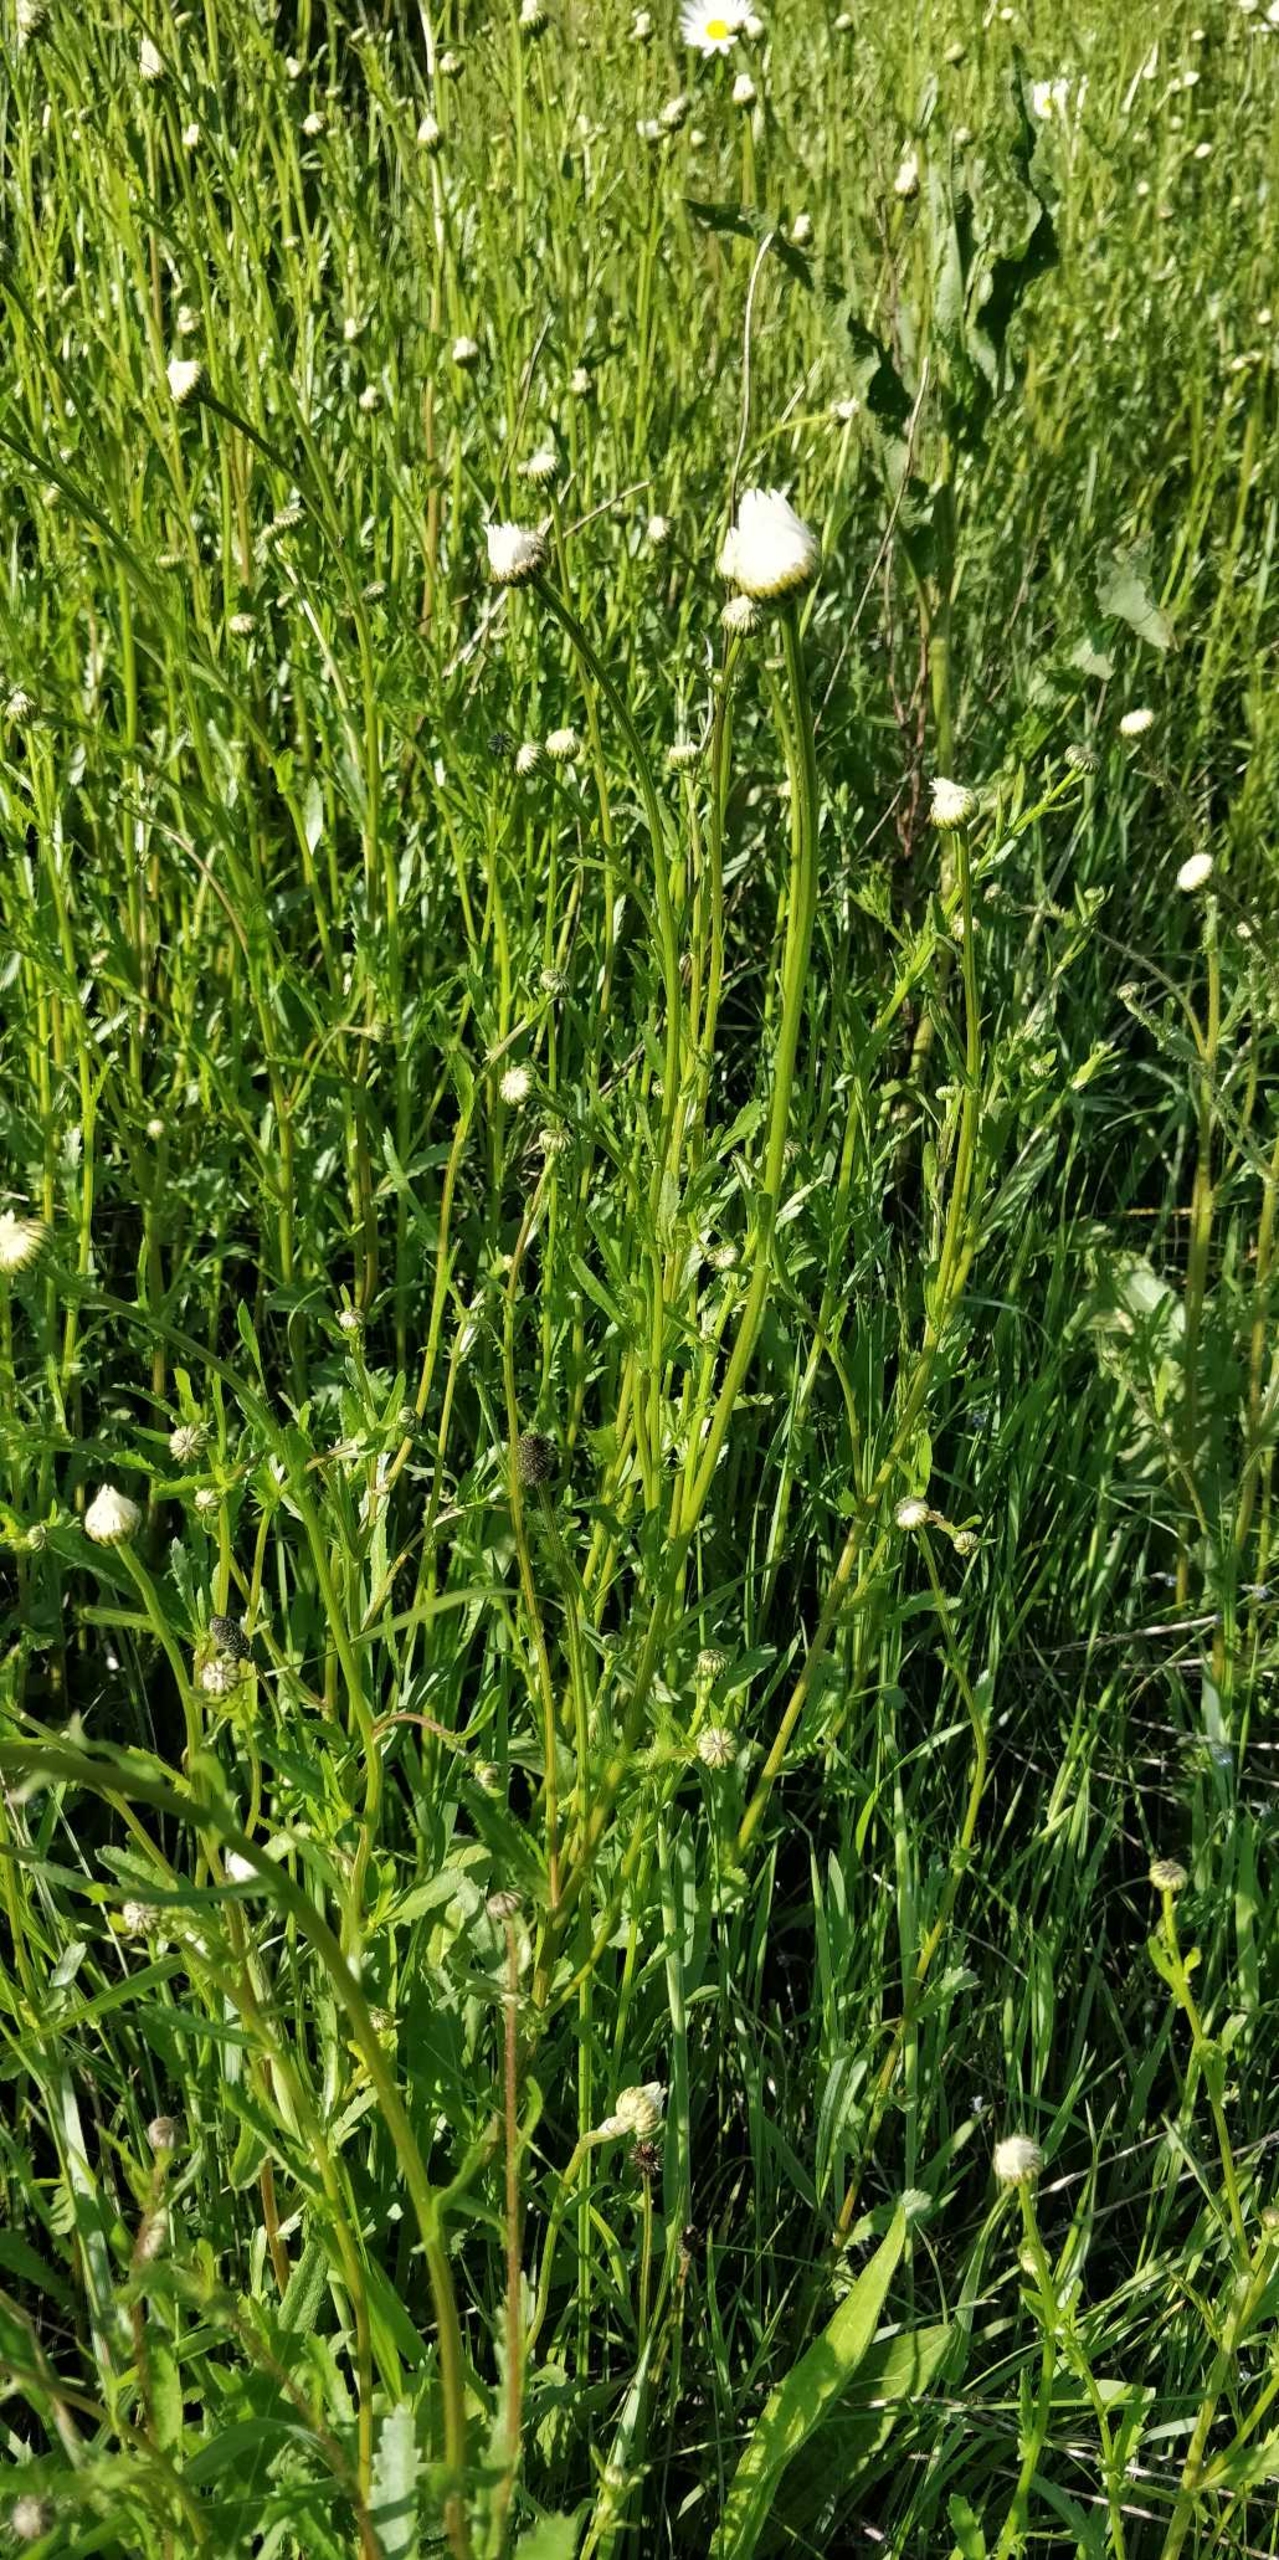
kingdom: Plantae
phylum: Tracheophyta
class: Magnoliopsida
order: Asterales
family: Asteraceae
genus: Leucanthemum
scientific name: Leucanthemum vulgare
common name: Hvid okseøje
